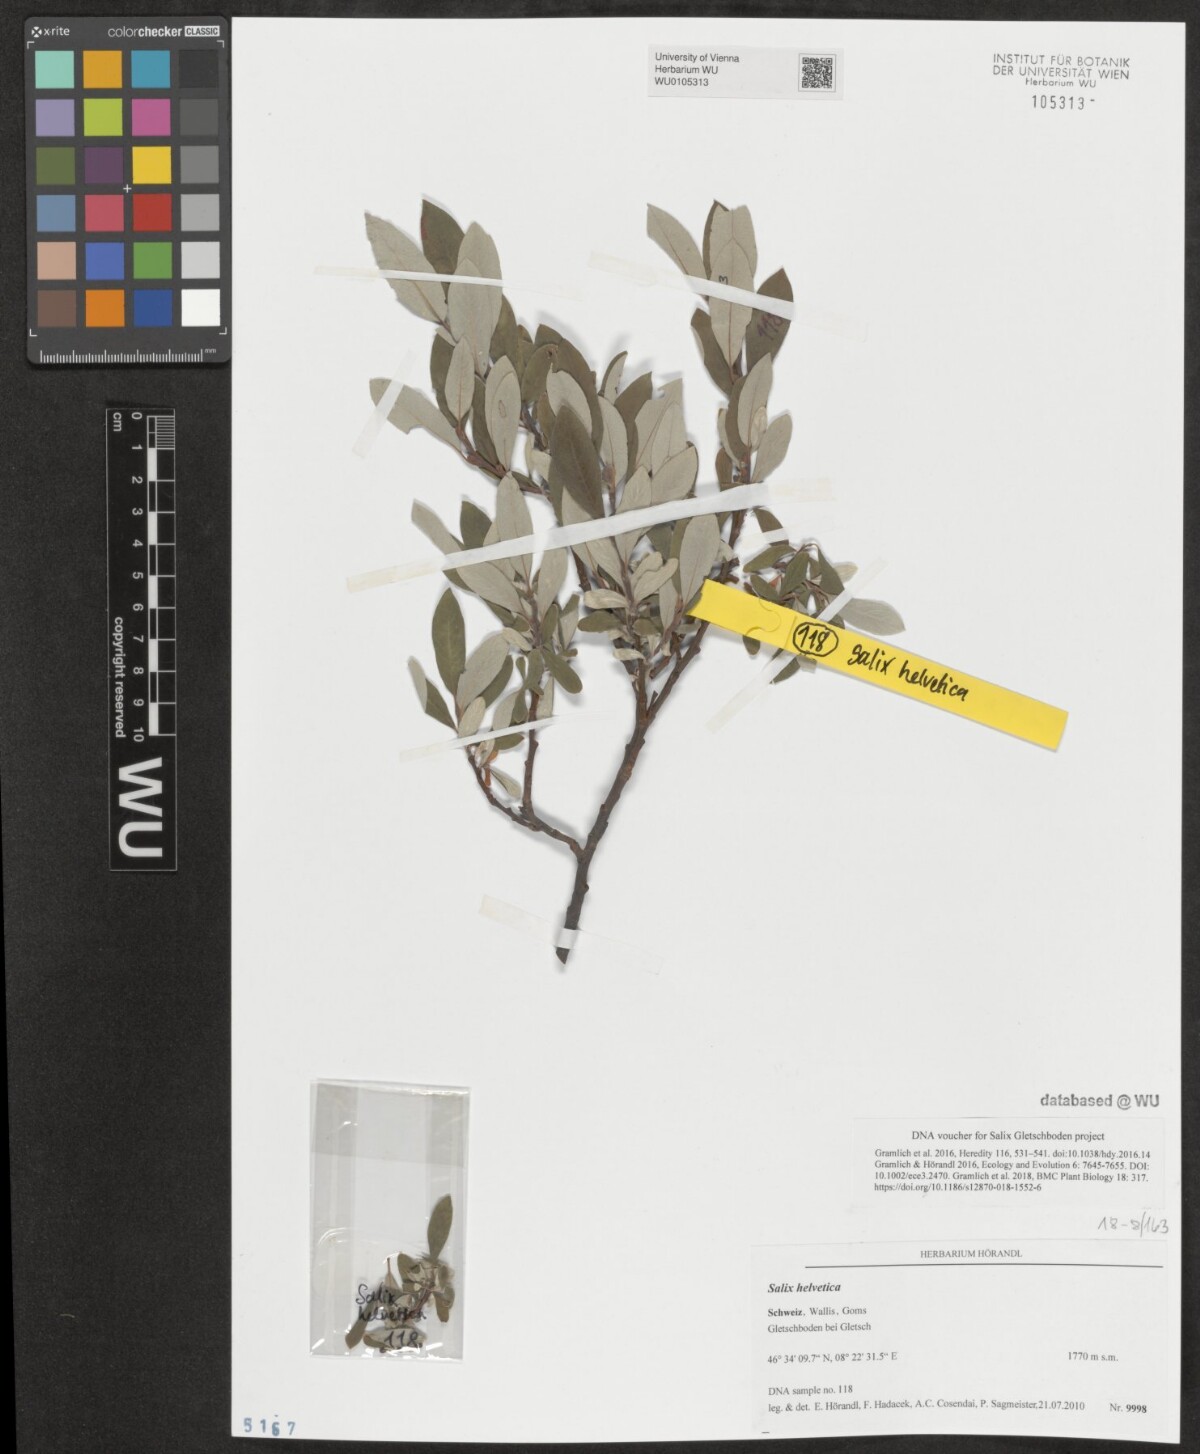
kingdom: Plantae
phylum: Tracheophyta
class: Magnoliopsida
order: Malpighiales
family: Salicaceae
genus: Salix
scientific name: Salix helvetica
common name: Swiss willow
